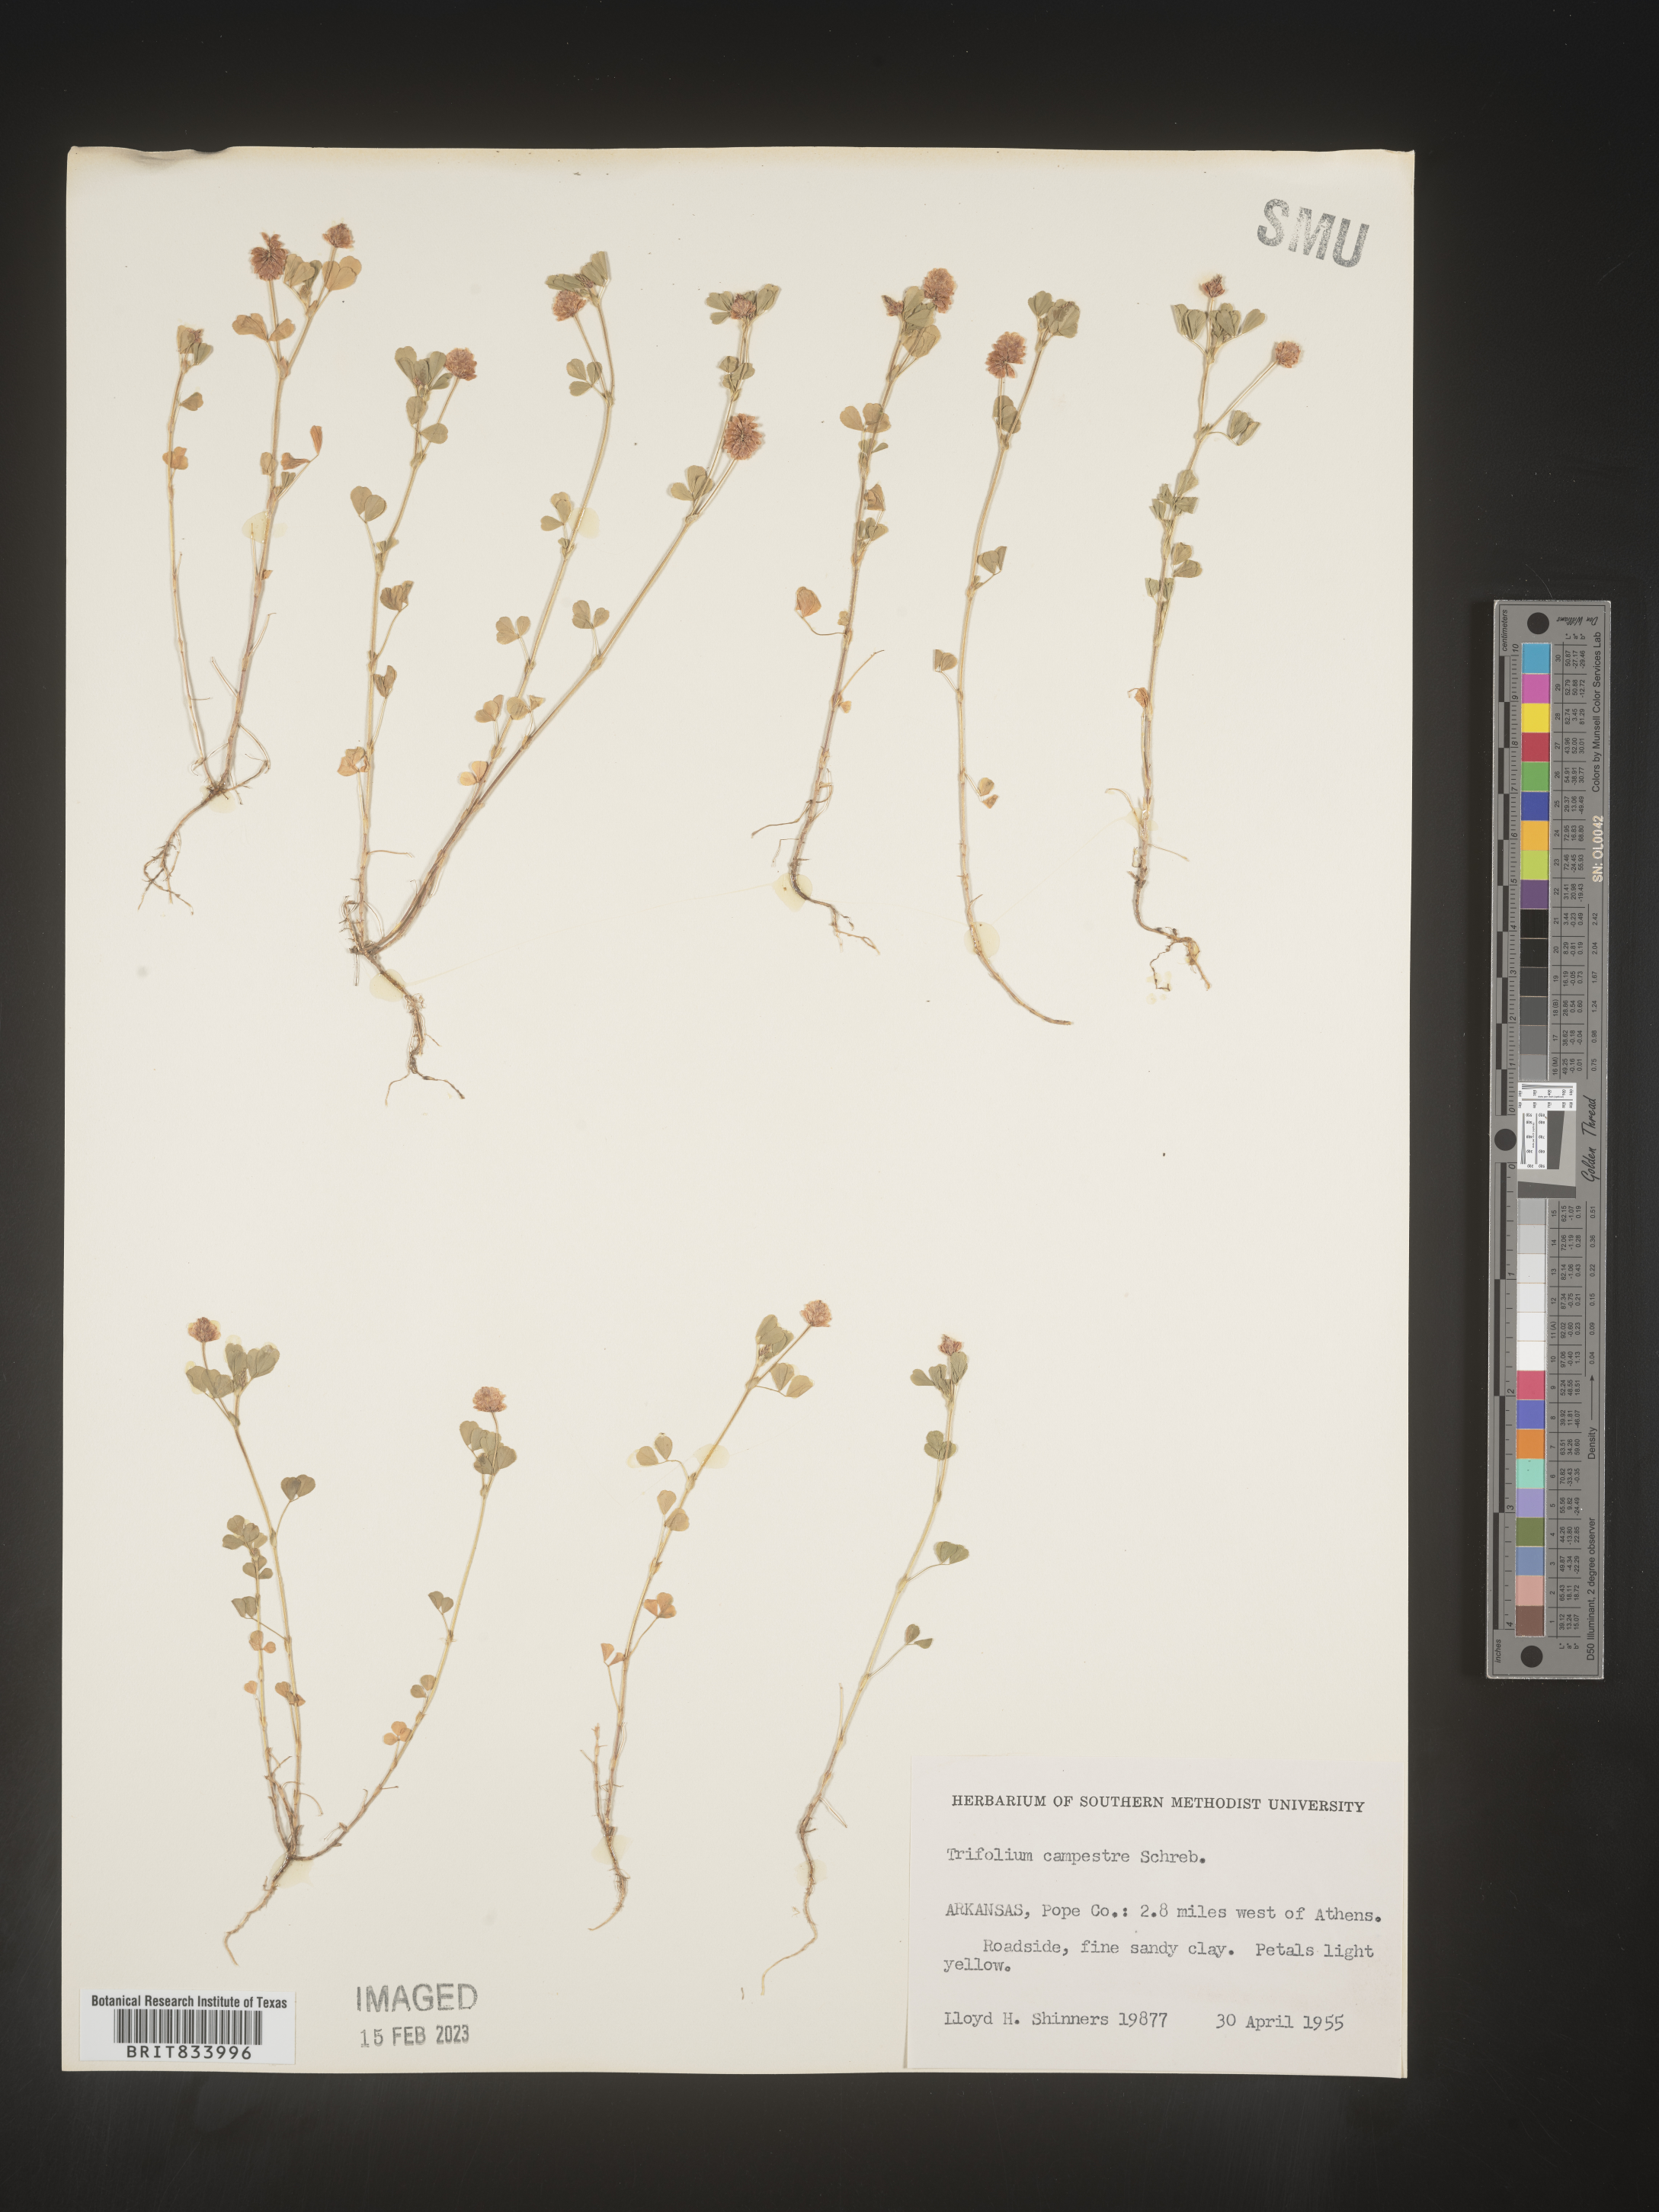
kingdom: Plantae
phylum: Tracheophyta
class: Magnoliopsida
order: Fabales
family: Fabaceae
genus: Trifolium
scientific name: Trifolium campestre
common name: Field clover
